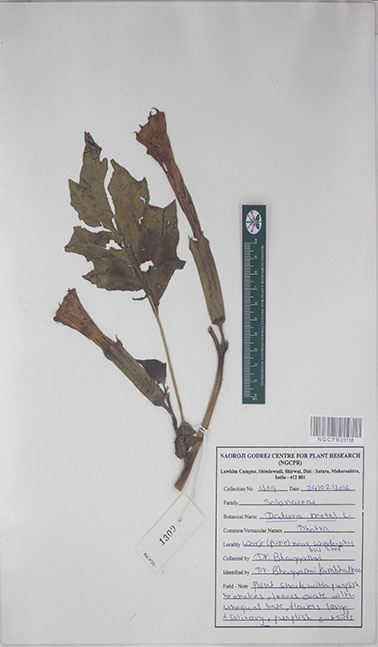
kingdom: Plantae
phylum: Tracheophyta
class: Magnoliopsida
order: Solanales
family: Solanaceae
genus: Datura
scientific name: Datura metel
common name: Jimsonweed
